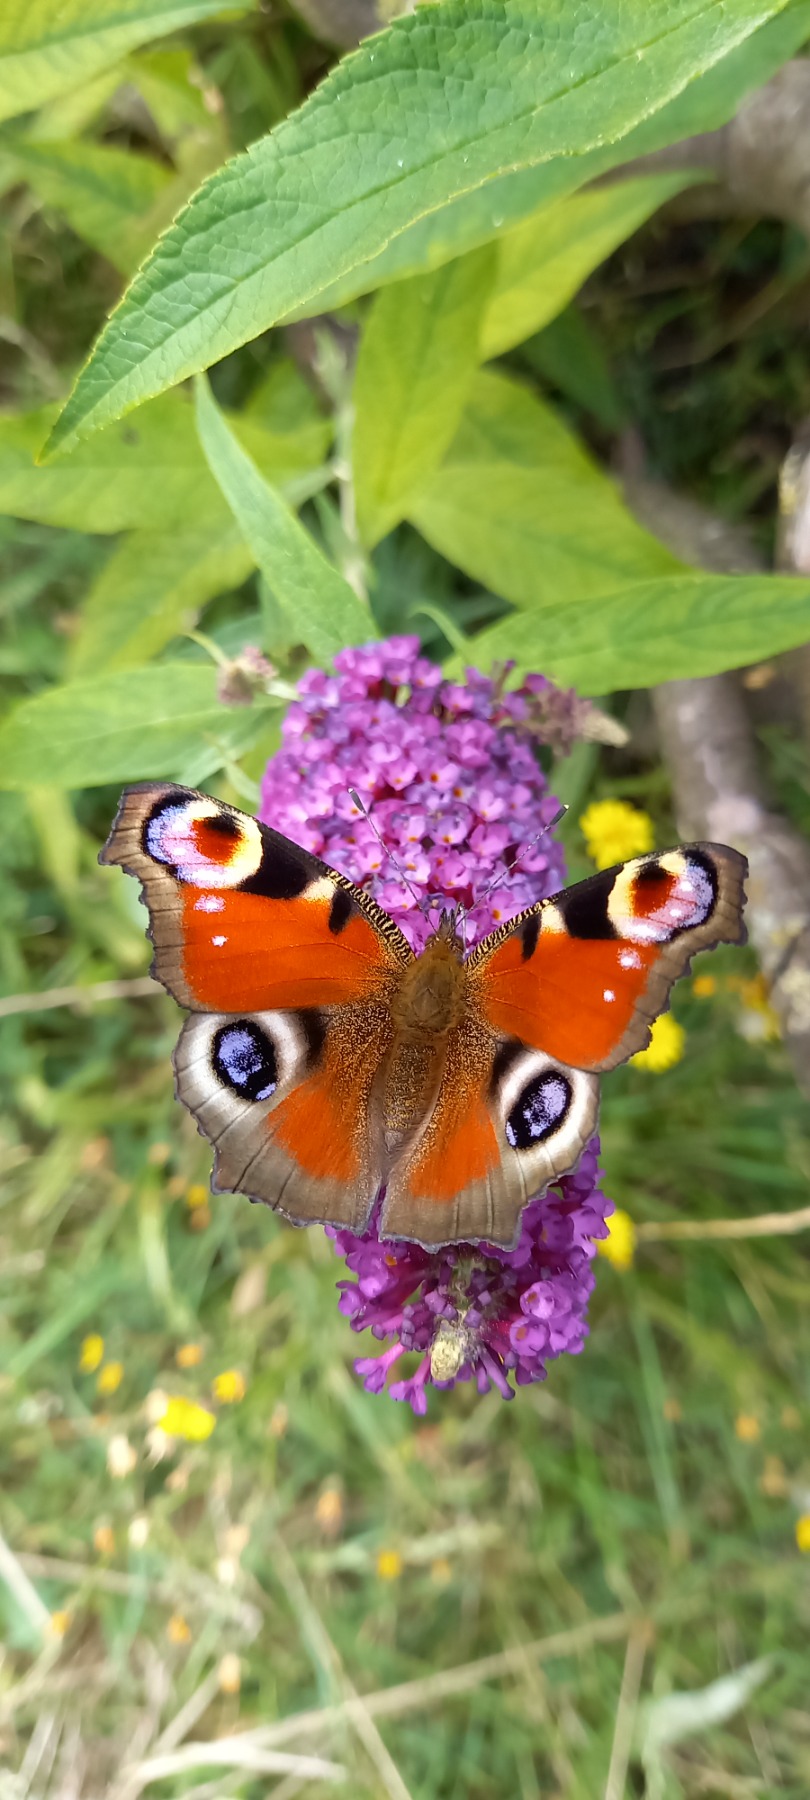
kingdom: Animalia
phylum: Arthropoda
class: Insecta
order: Lepidoptera
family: Nymphalidae
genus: Aglais
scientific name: Aglais io
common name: Dagpåfugleøje
